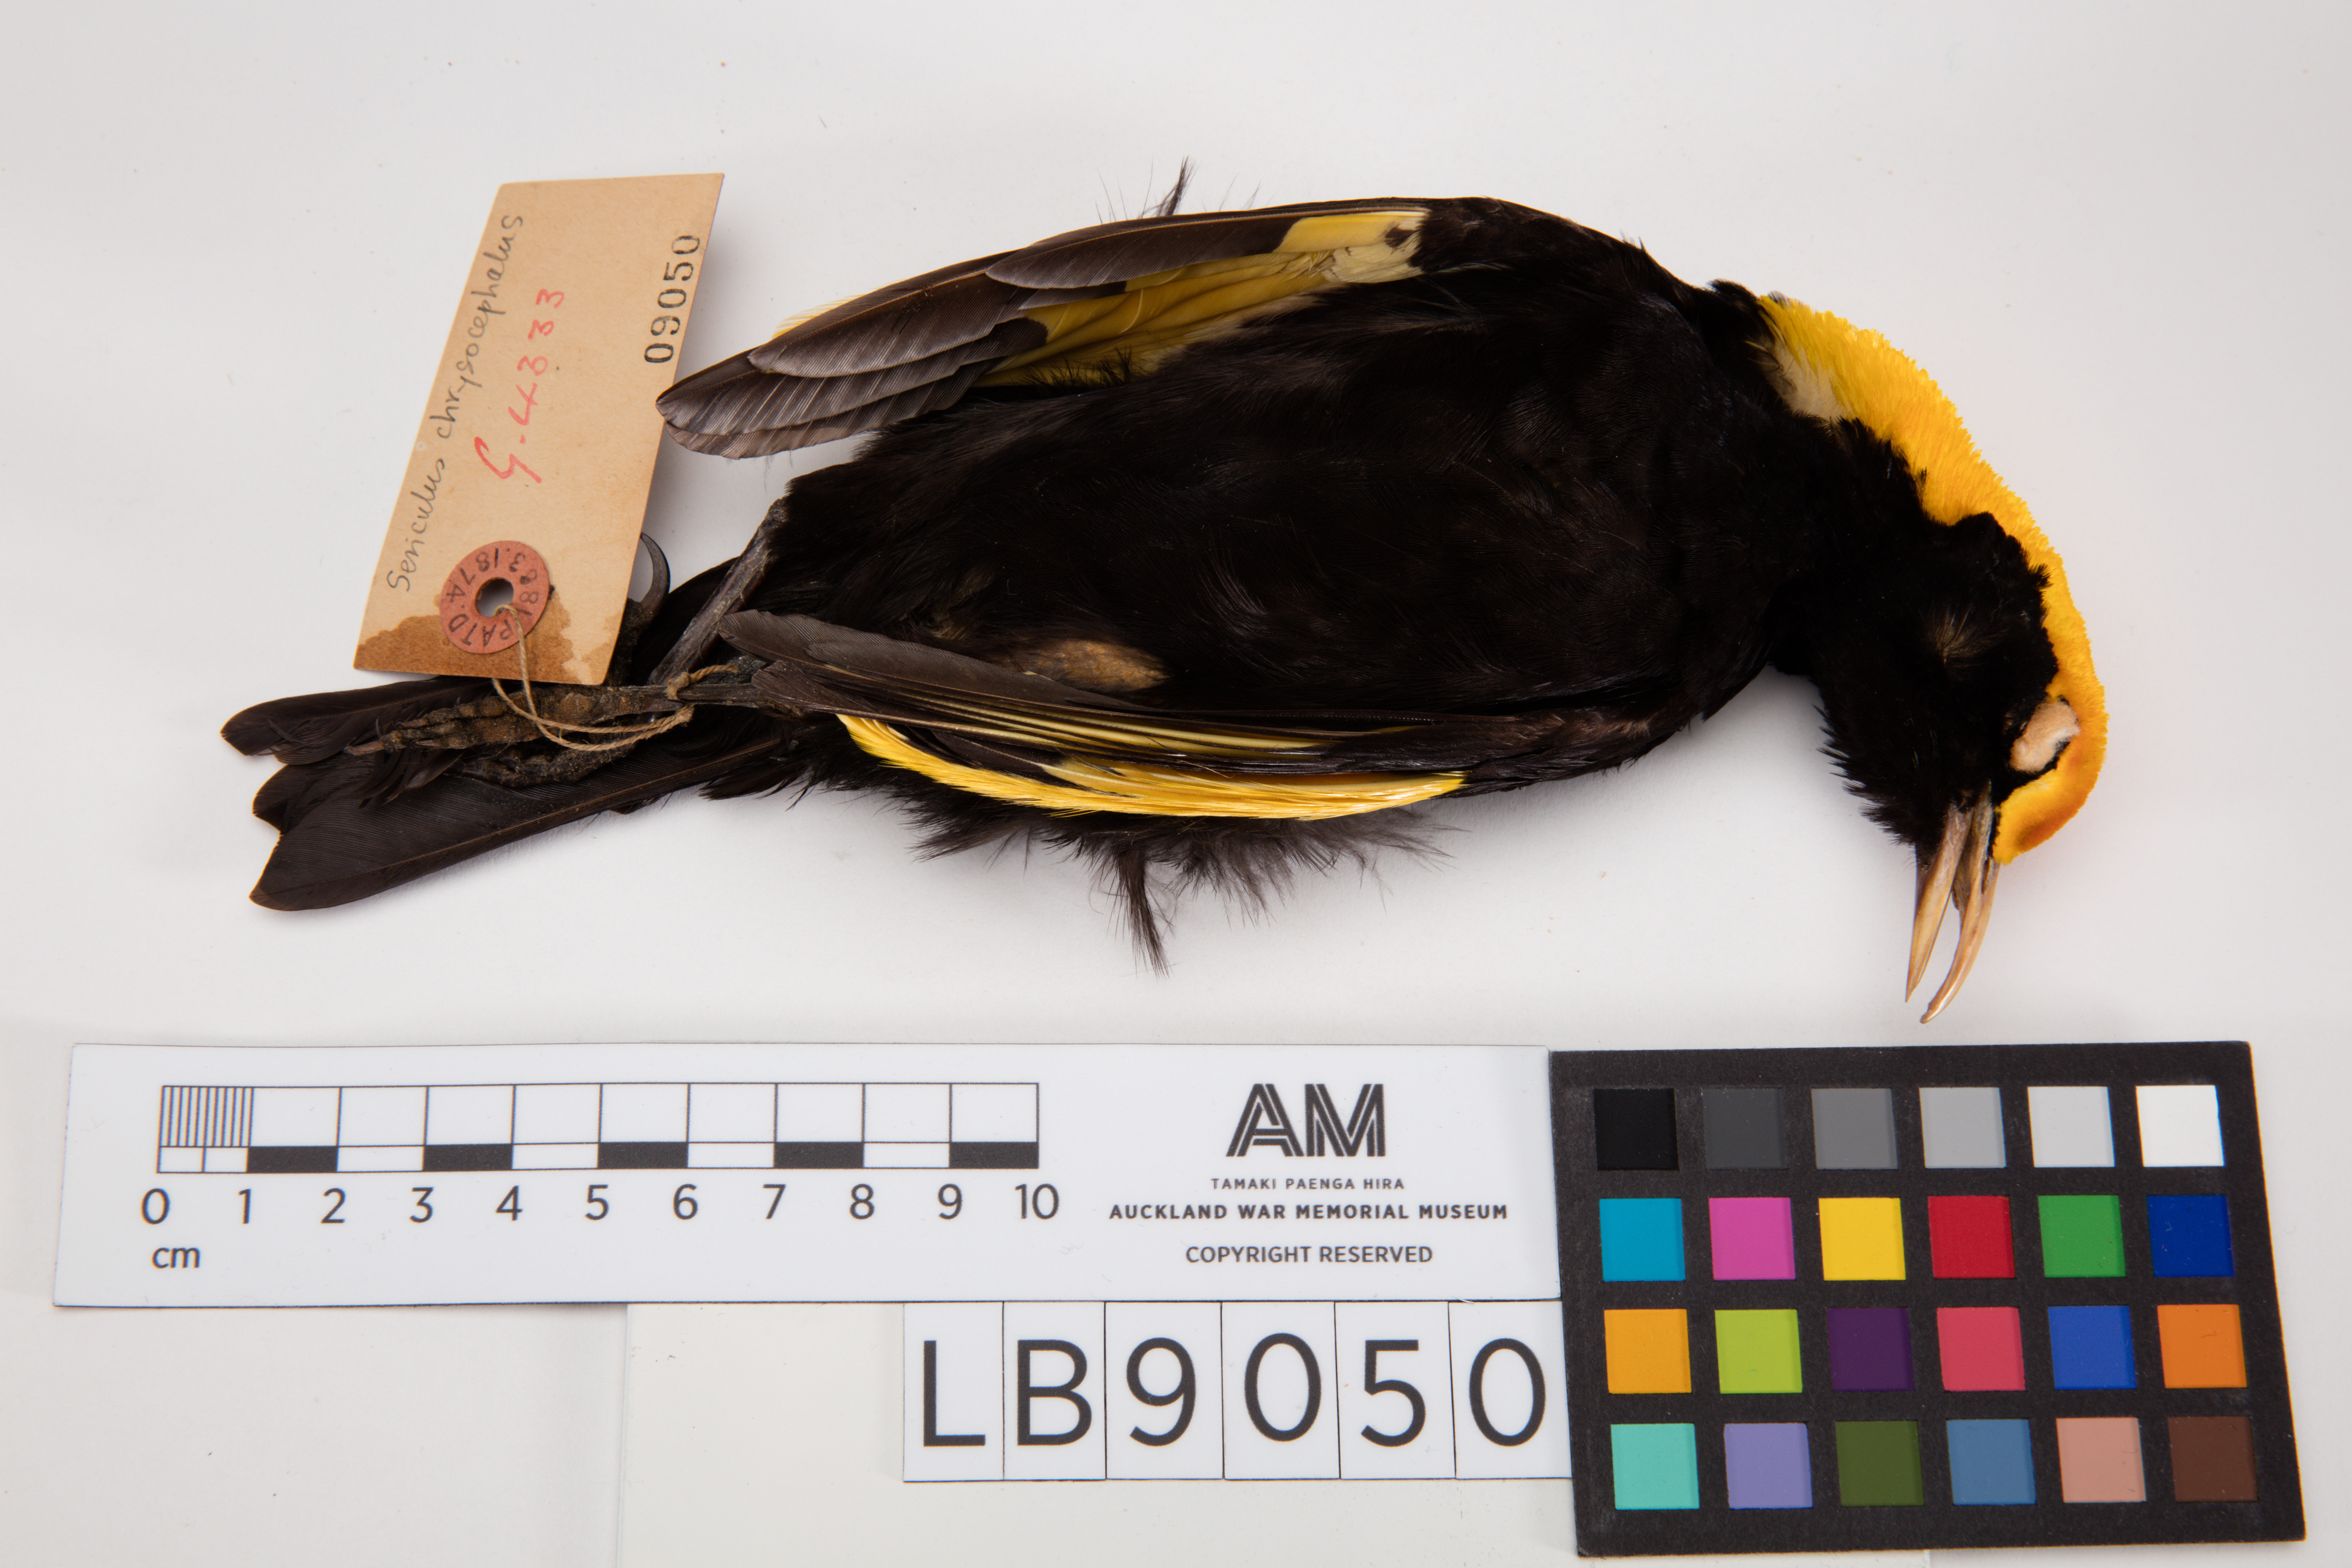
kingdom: Animalia
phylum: Chordata
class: Aves
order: Passeriformes
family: Ptilonorhynchidae
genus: Sericulus
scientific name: Sericulus chrysocephalus
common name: Regent bowerbird
